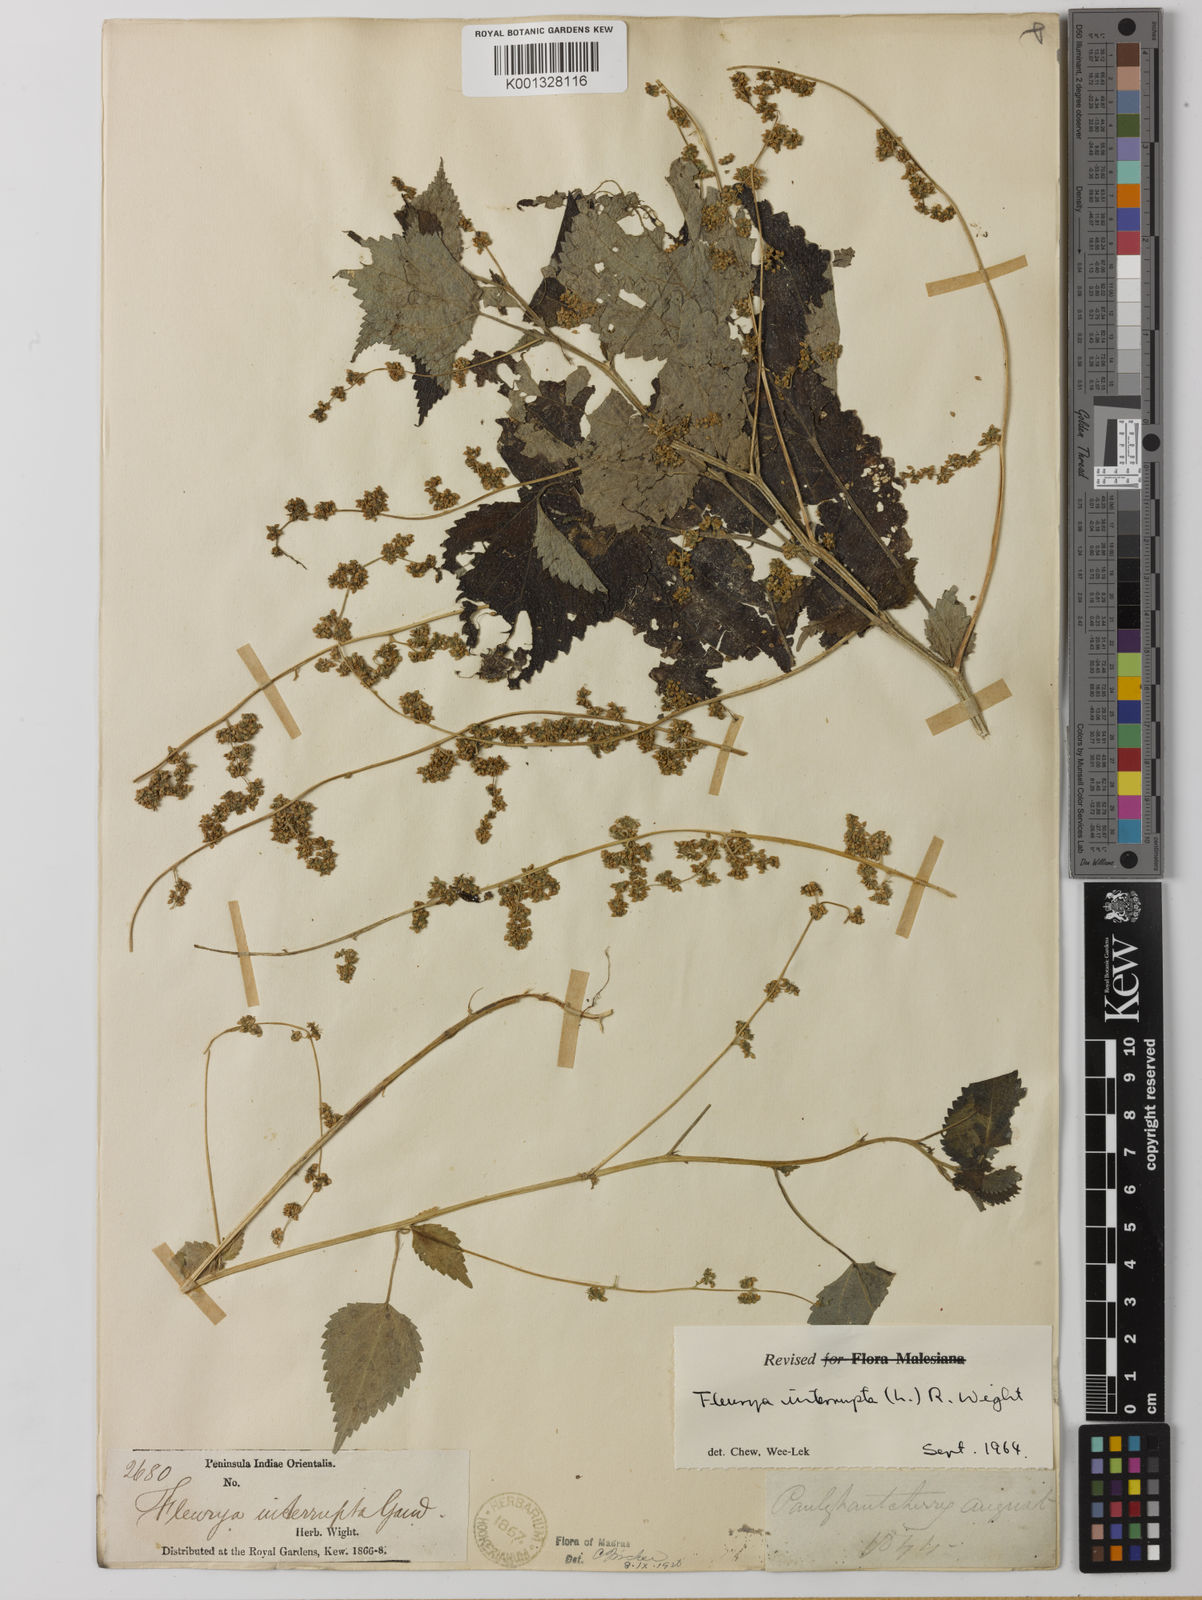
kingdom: Plantae
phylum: Tracheophyta
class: Magnoliopsida
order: Rosales
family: Urticaceae
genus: Laportea
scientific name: Laportea interrupta
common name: Hawaiian wood-nettle
